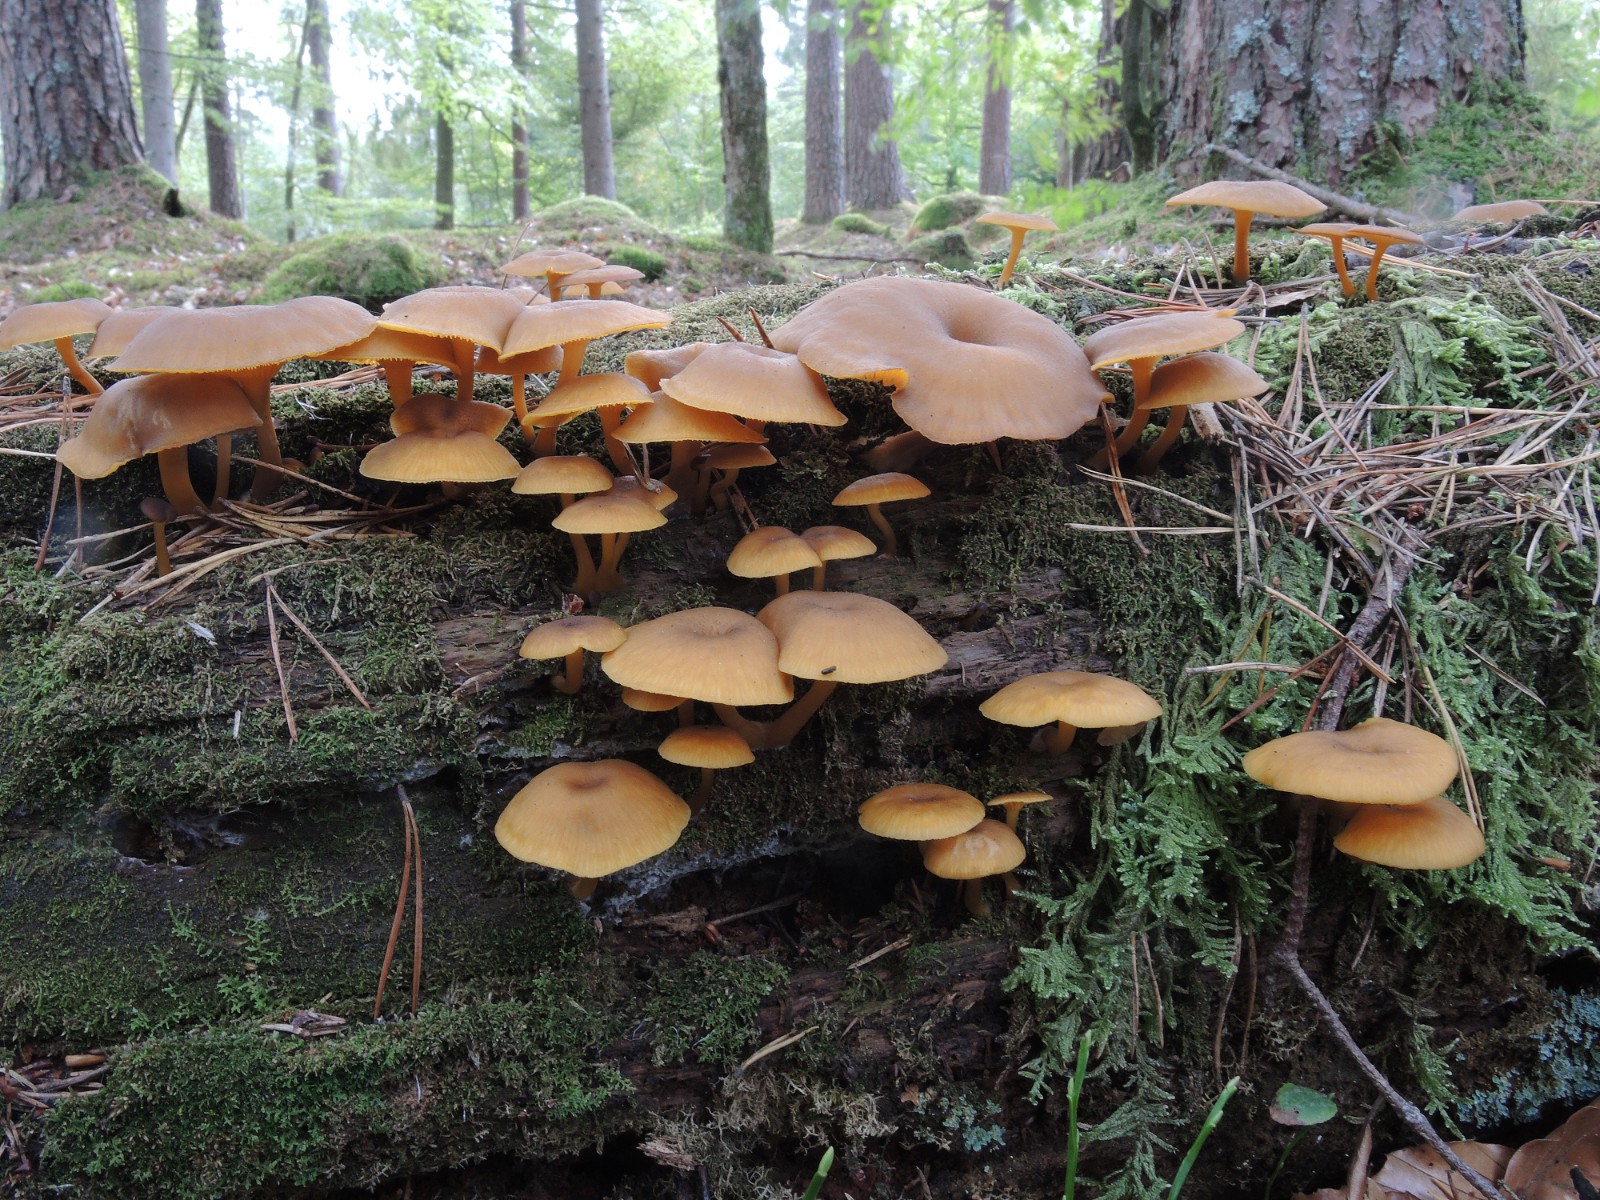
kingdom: Fungi
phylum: Basidiomycota
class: Agaricomycetes
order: Agaricales
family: Hygrophoraceae
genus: Chrysomphalina
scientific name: Chrysomphalina chrysophylla
